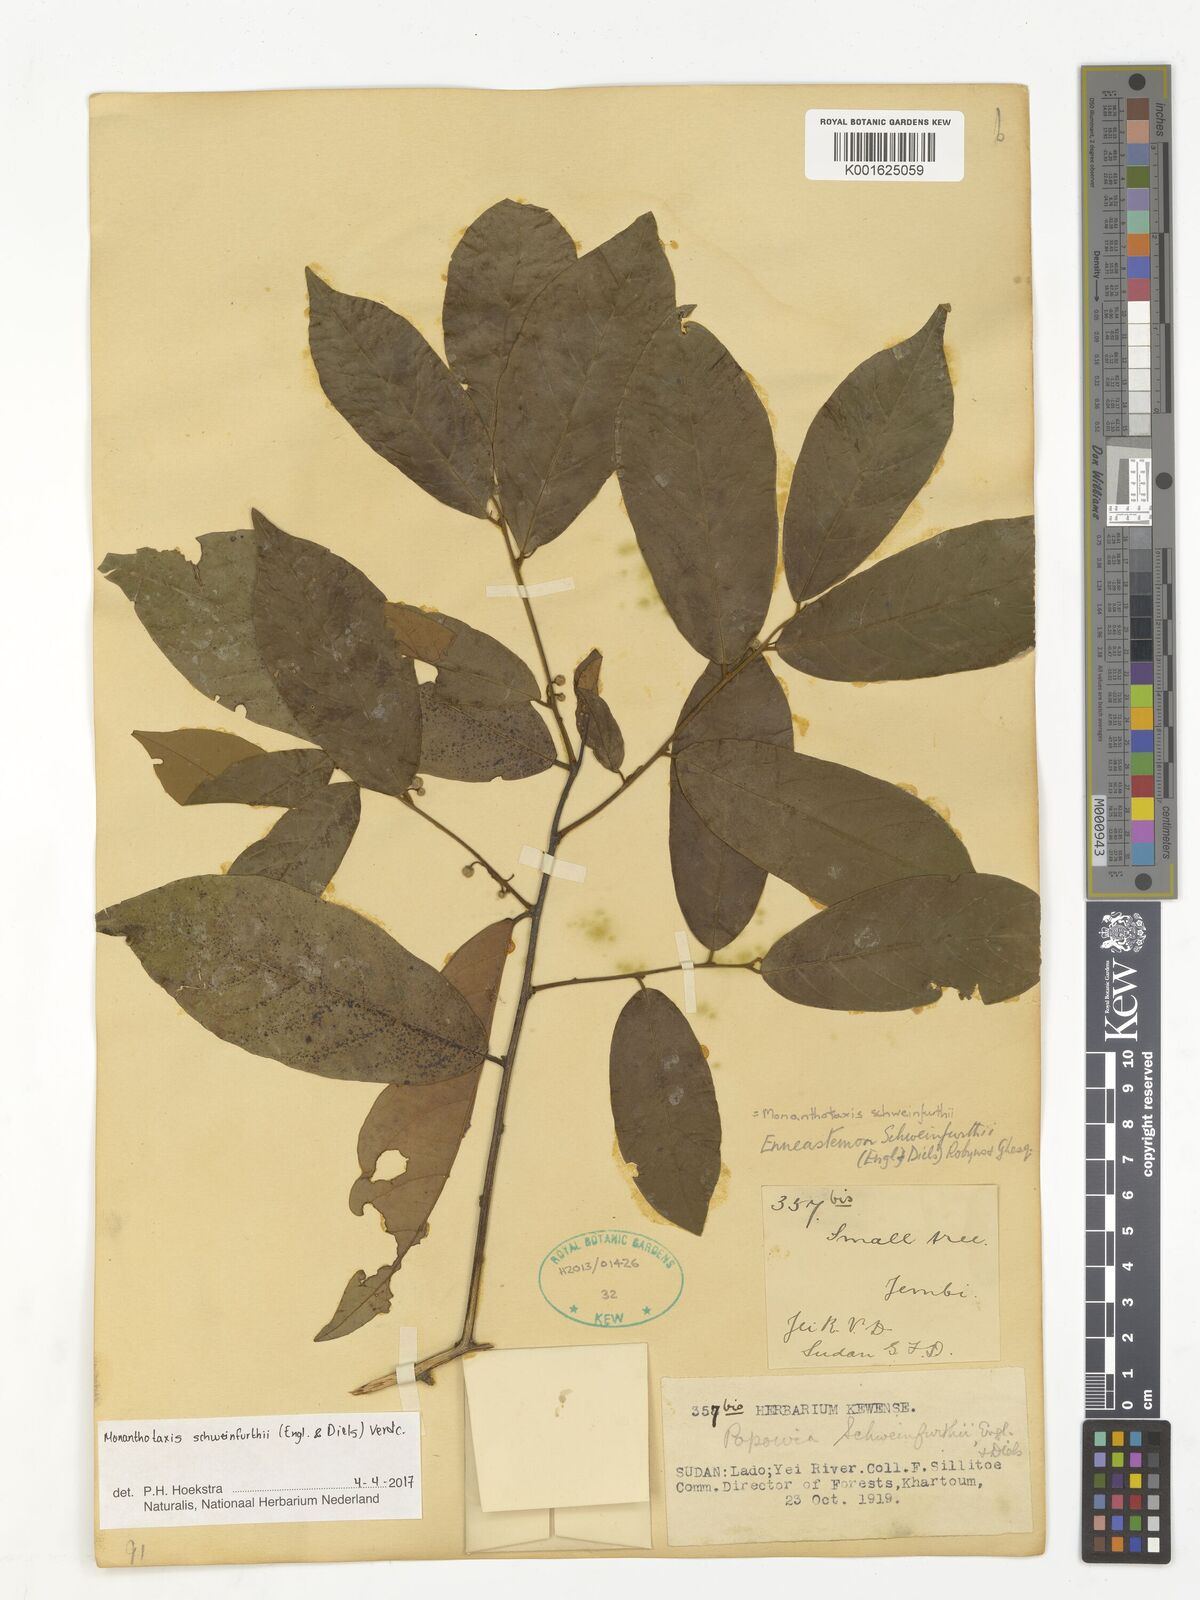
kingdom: Plantae
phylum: Tracheophyta
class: Magnoliopsida
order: Magnoliales
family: Annonaceae
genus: Monanthotaxis
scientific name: Monanthotaxis schweinfurthii
